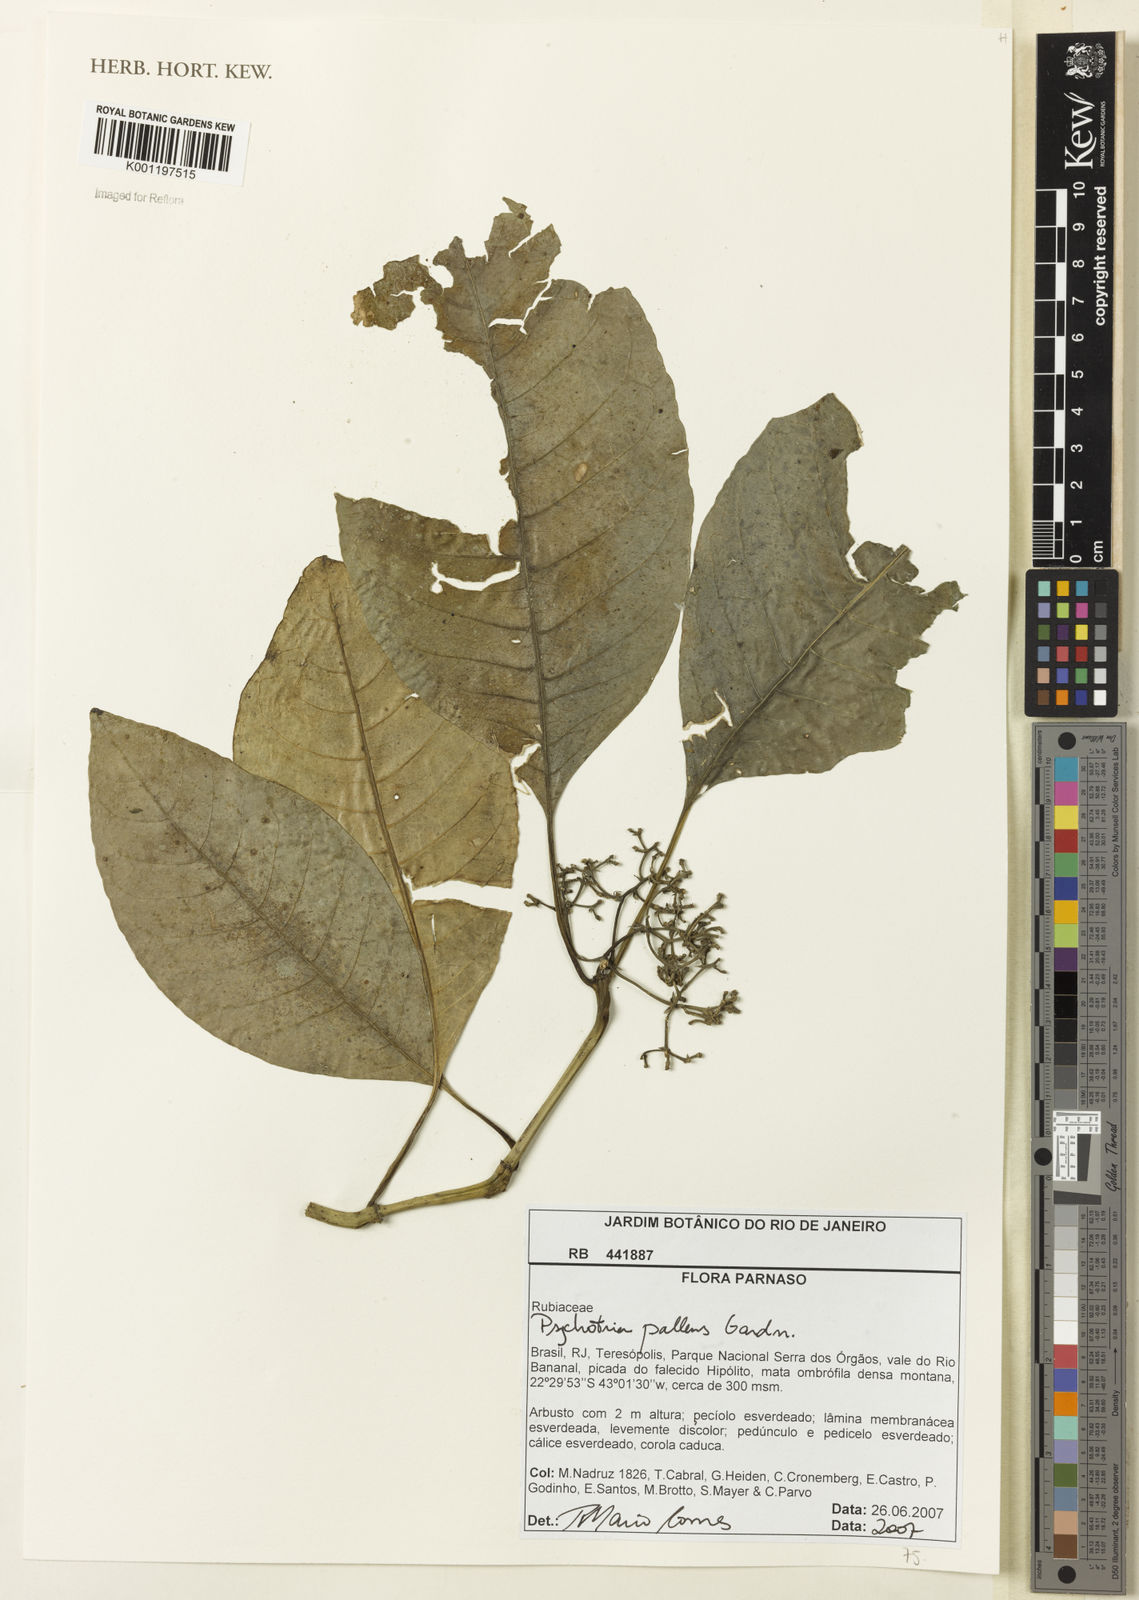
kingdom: Plantae
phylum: Tracheophyta
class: Magnoliopsida
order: Gentianales
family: Rubiaceae
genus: Psychotria
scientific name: Psychotria pallens
